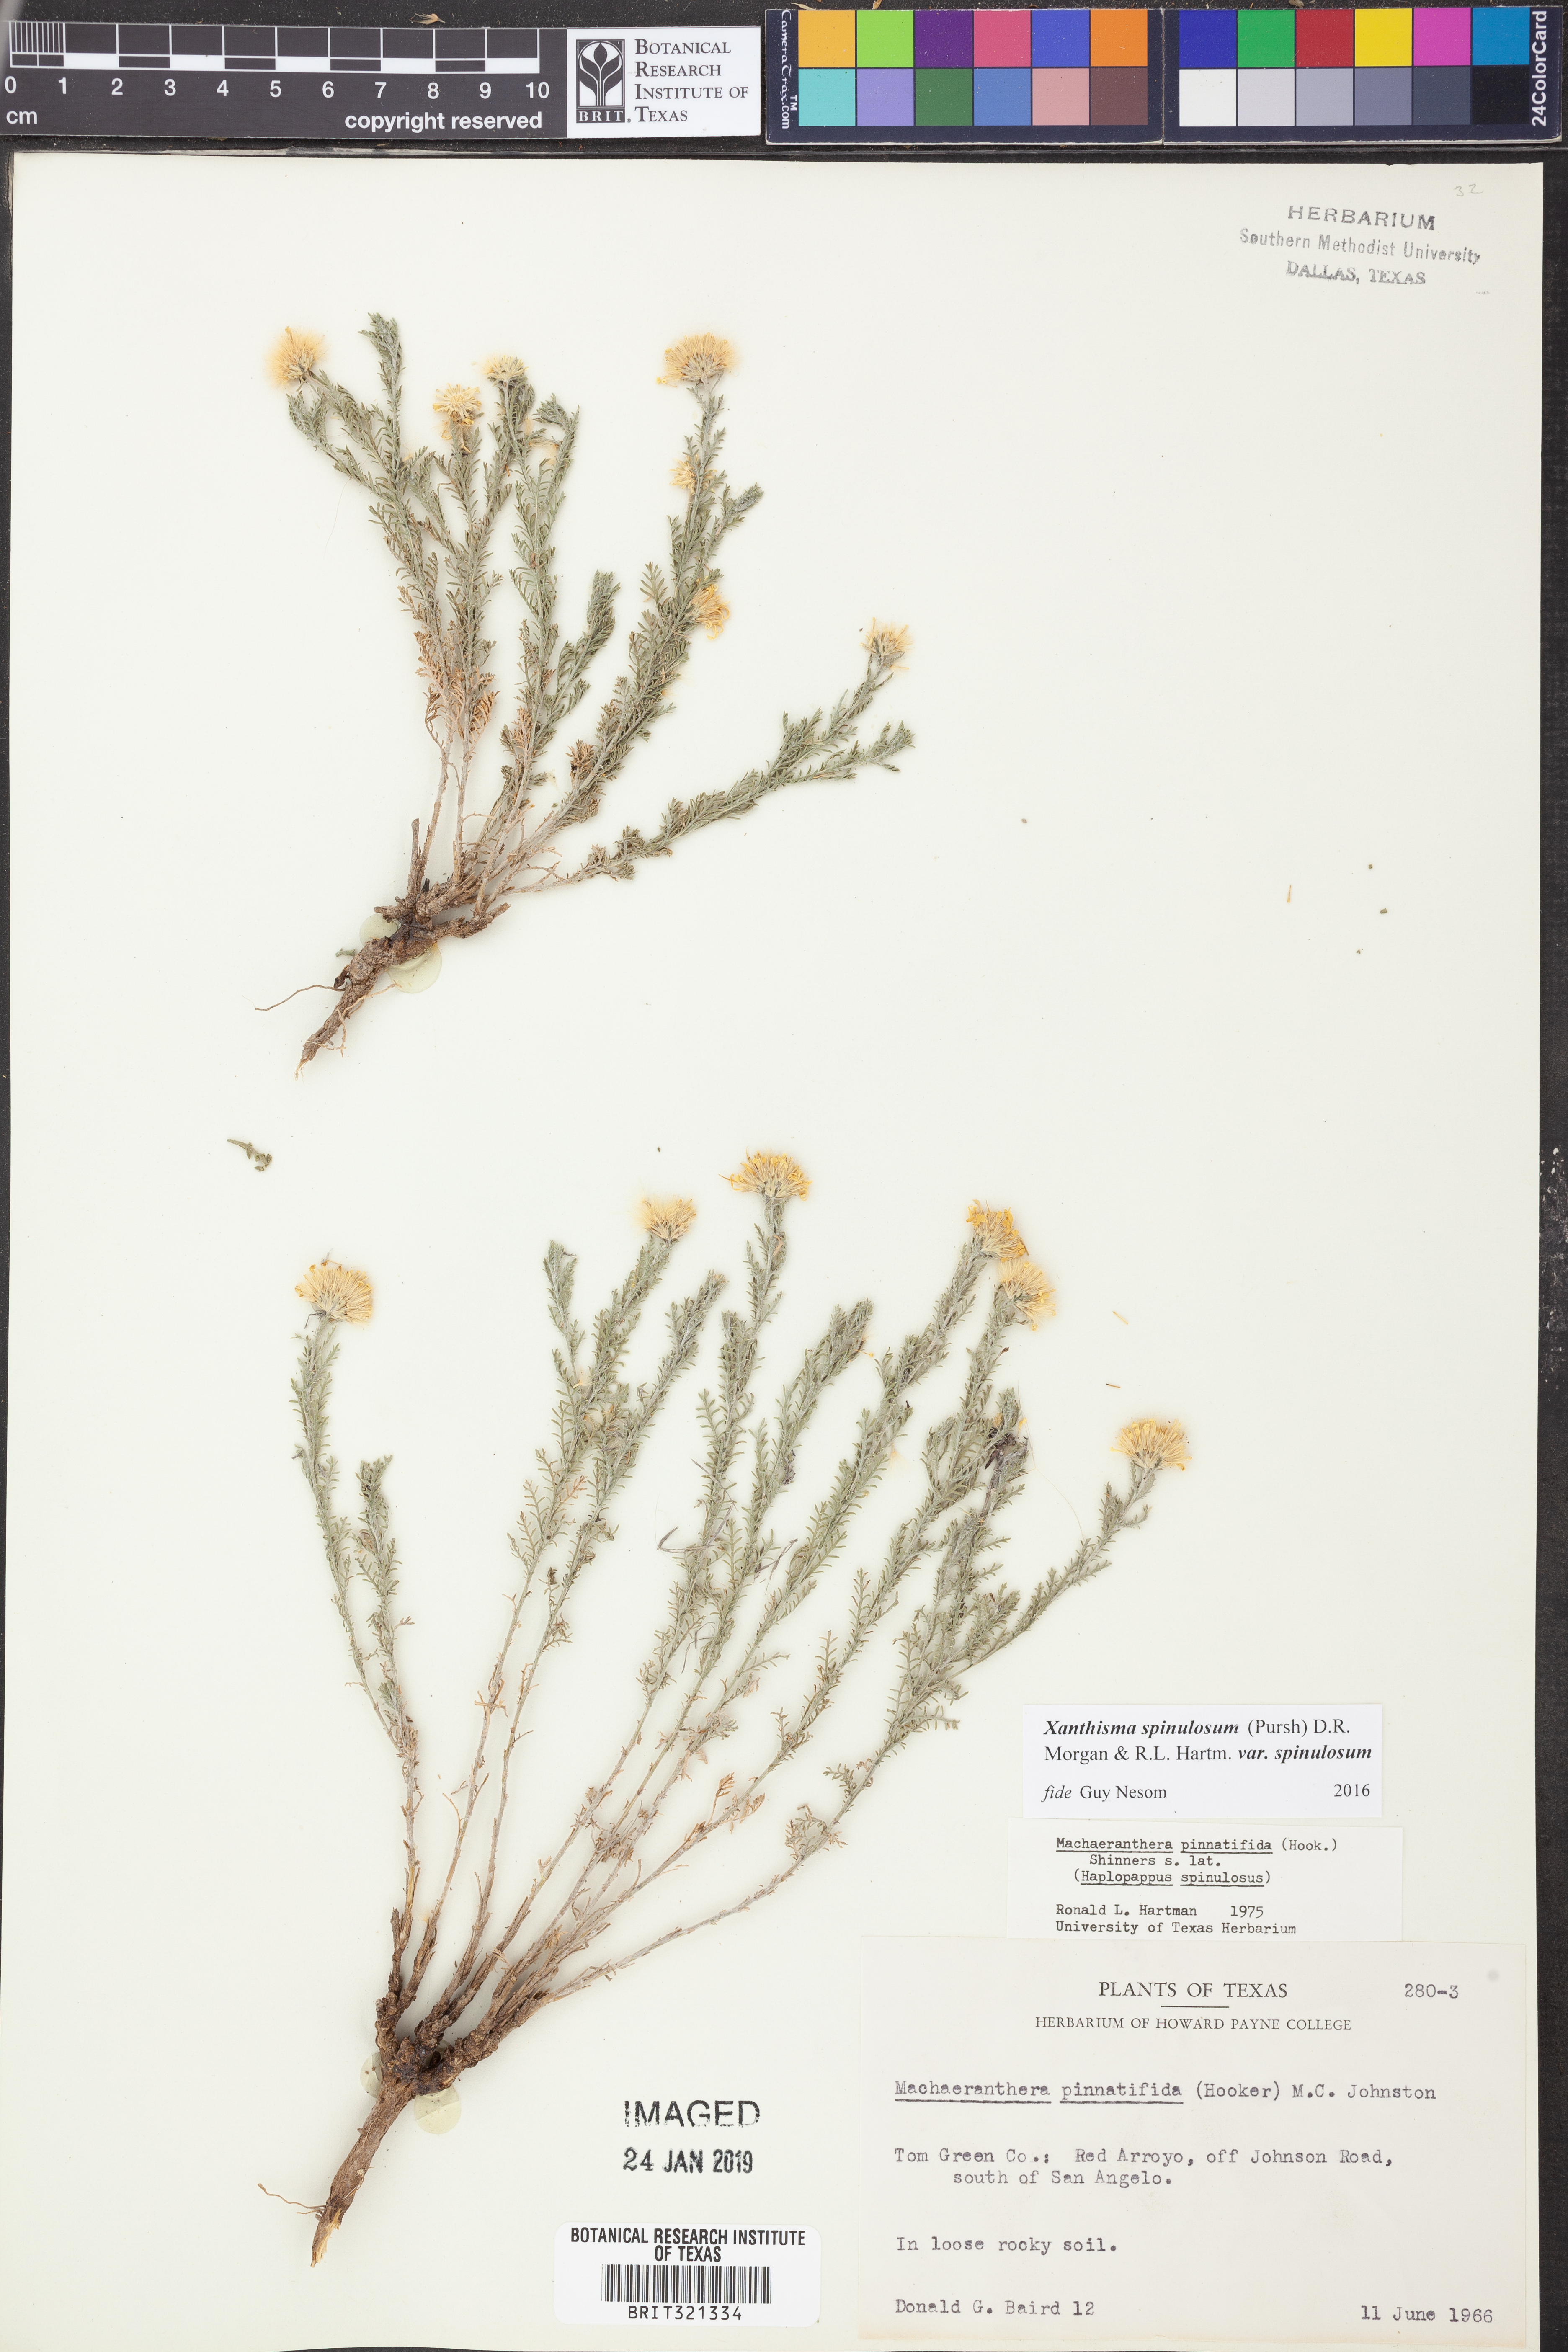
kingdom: Plantae
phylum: Tracheophyta
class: Magnoliopsida
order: Asterales
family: Asteraceae
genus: Xanthisma
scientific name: Xanthisma spinulosum
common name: Spiny goldenweed
